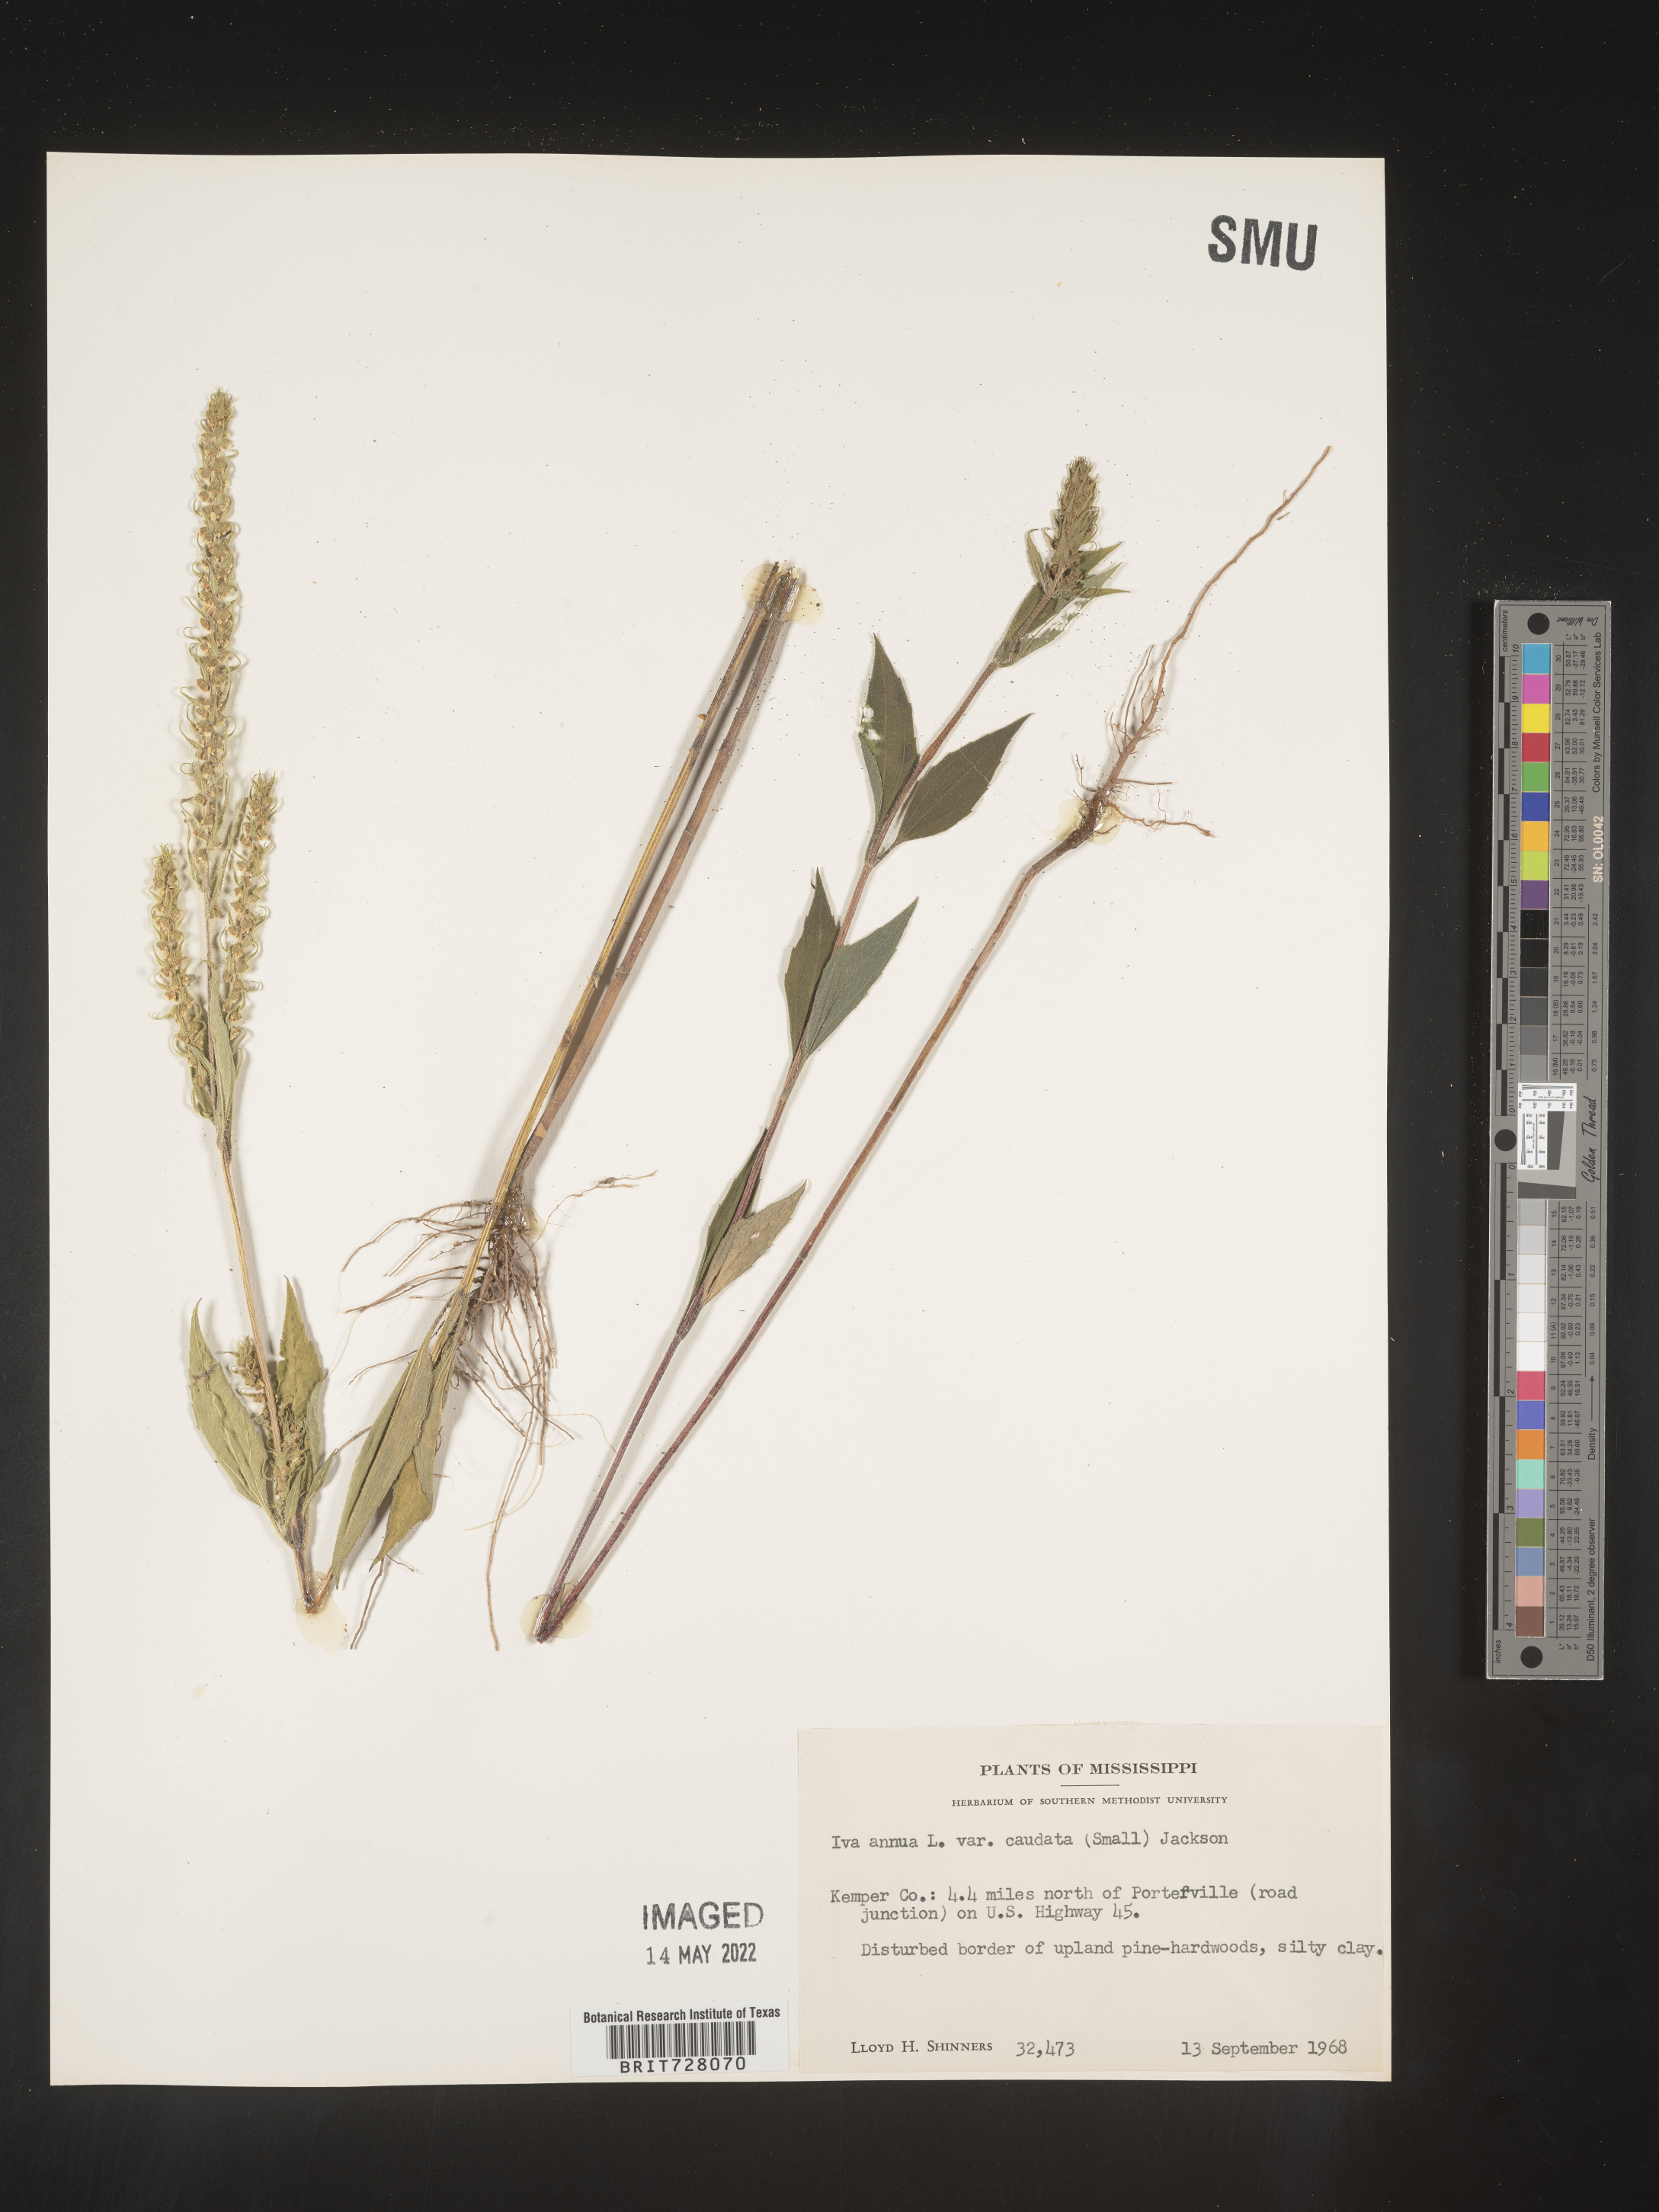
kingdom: Plantae
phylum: Tracheophyta
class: Magnoliopsida
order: Asterales
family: Asteraceae
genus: Iva
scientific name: Iva annua
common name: Marsh-elder
